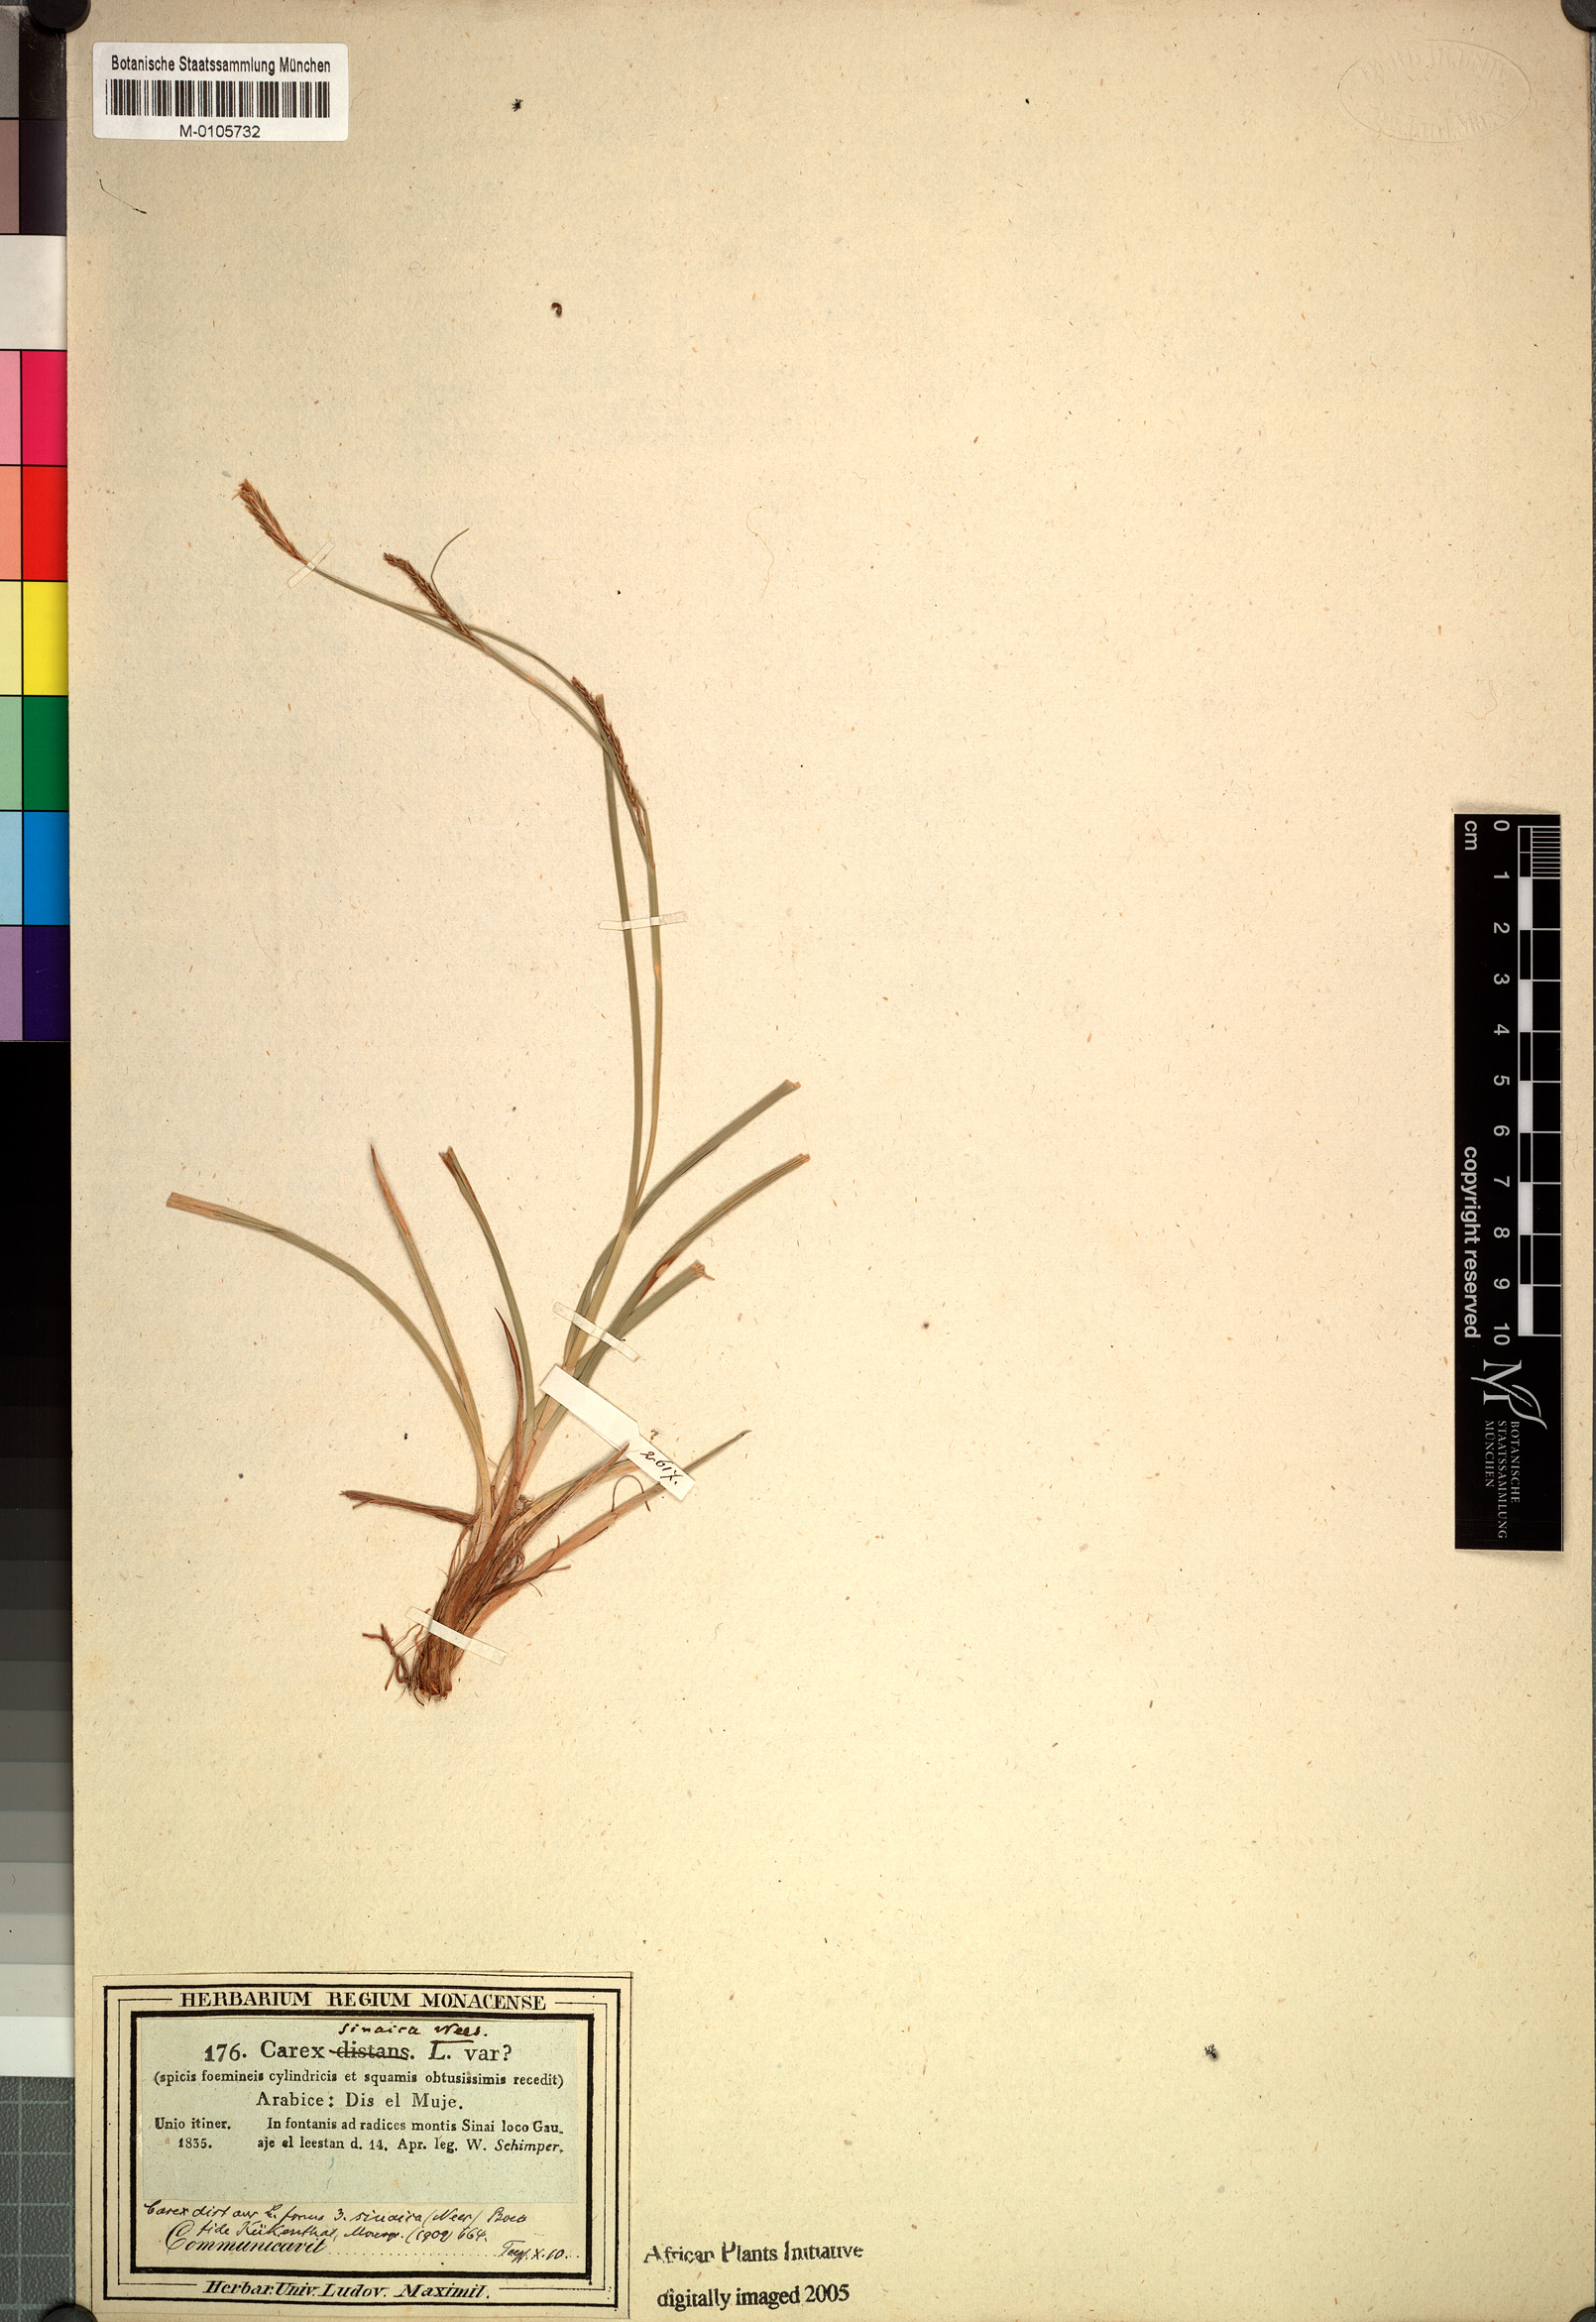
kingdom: Plantae
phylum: Tracheophyta
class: Liliopsida
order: Poales
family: Cyperaceae
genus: Carex
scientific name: Carex distans
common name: Distant sedge
